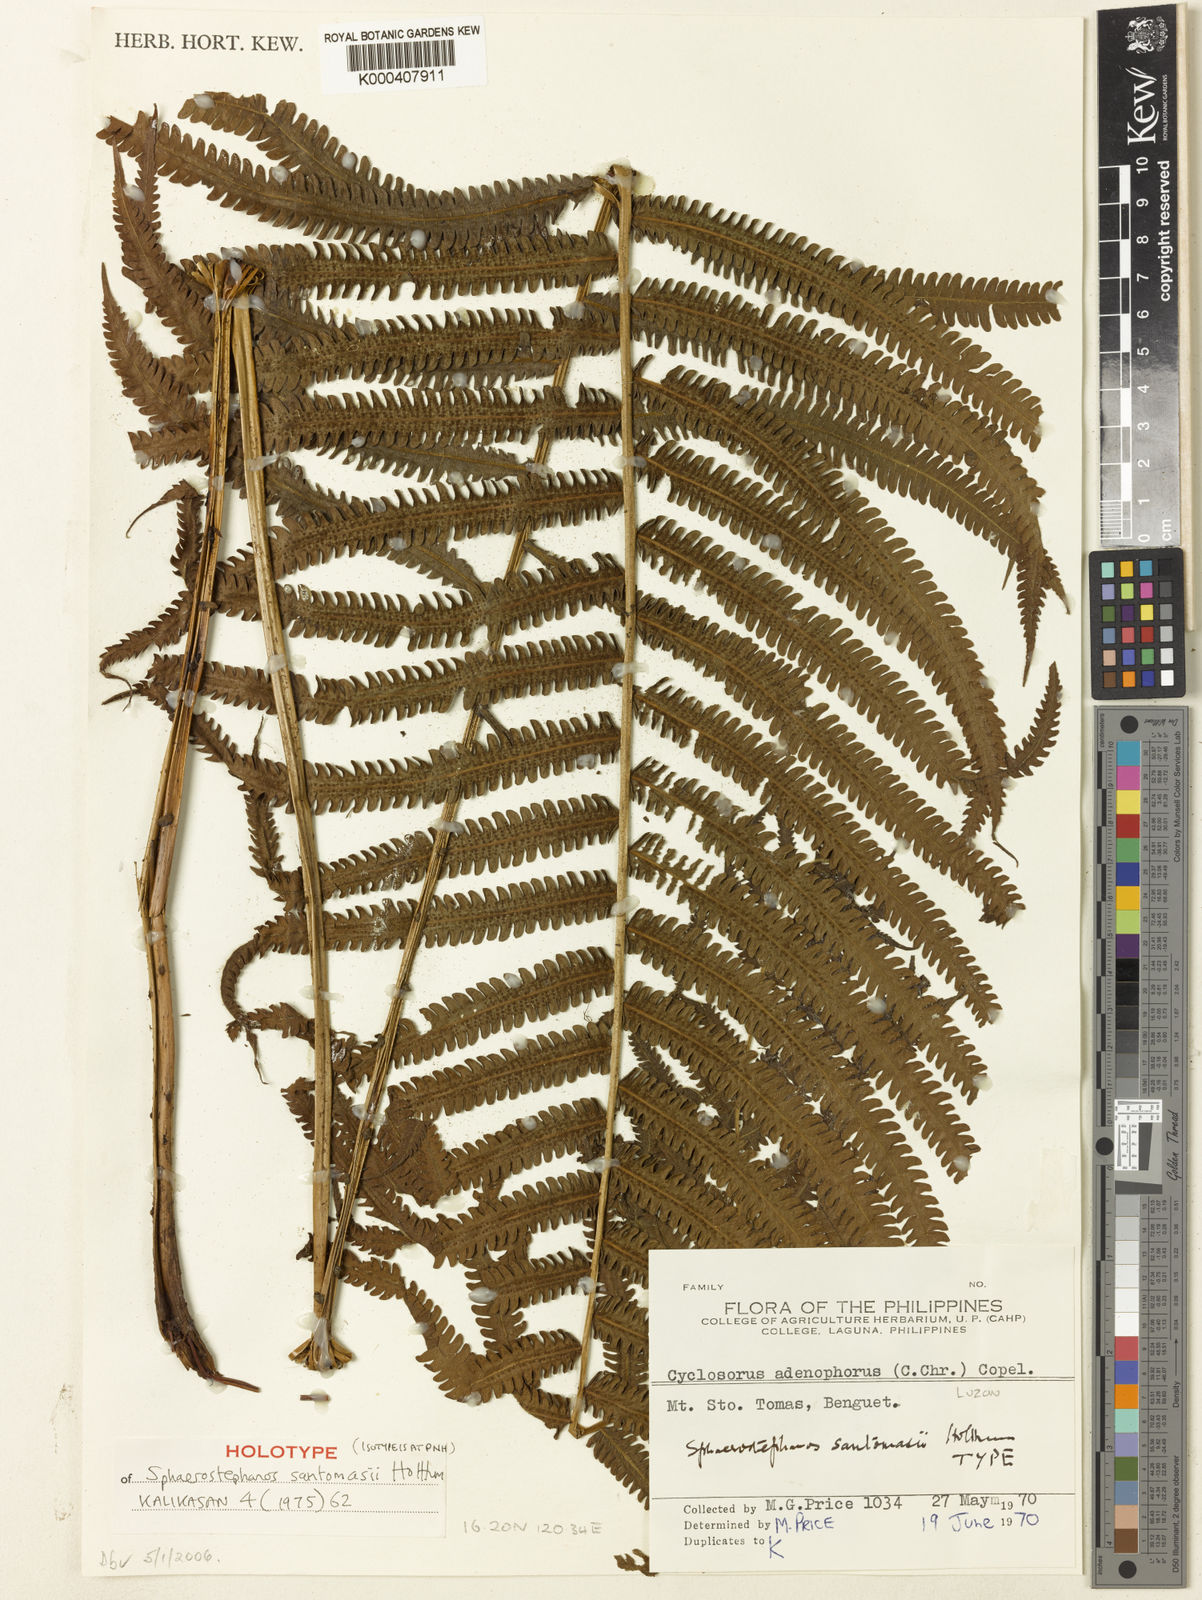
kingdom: Plantae
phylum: Tracheophyta
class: Polypodiopsida
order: Polypodiales
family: Thelypteridaceae
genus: Sphaerostephanos
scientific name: Sphaerostephanos santomasii
